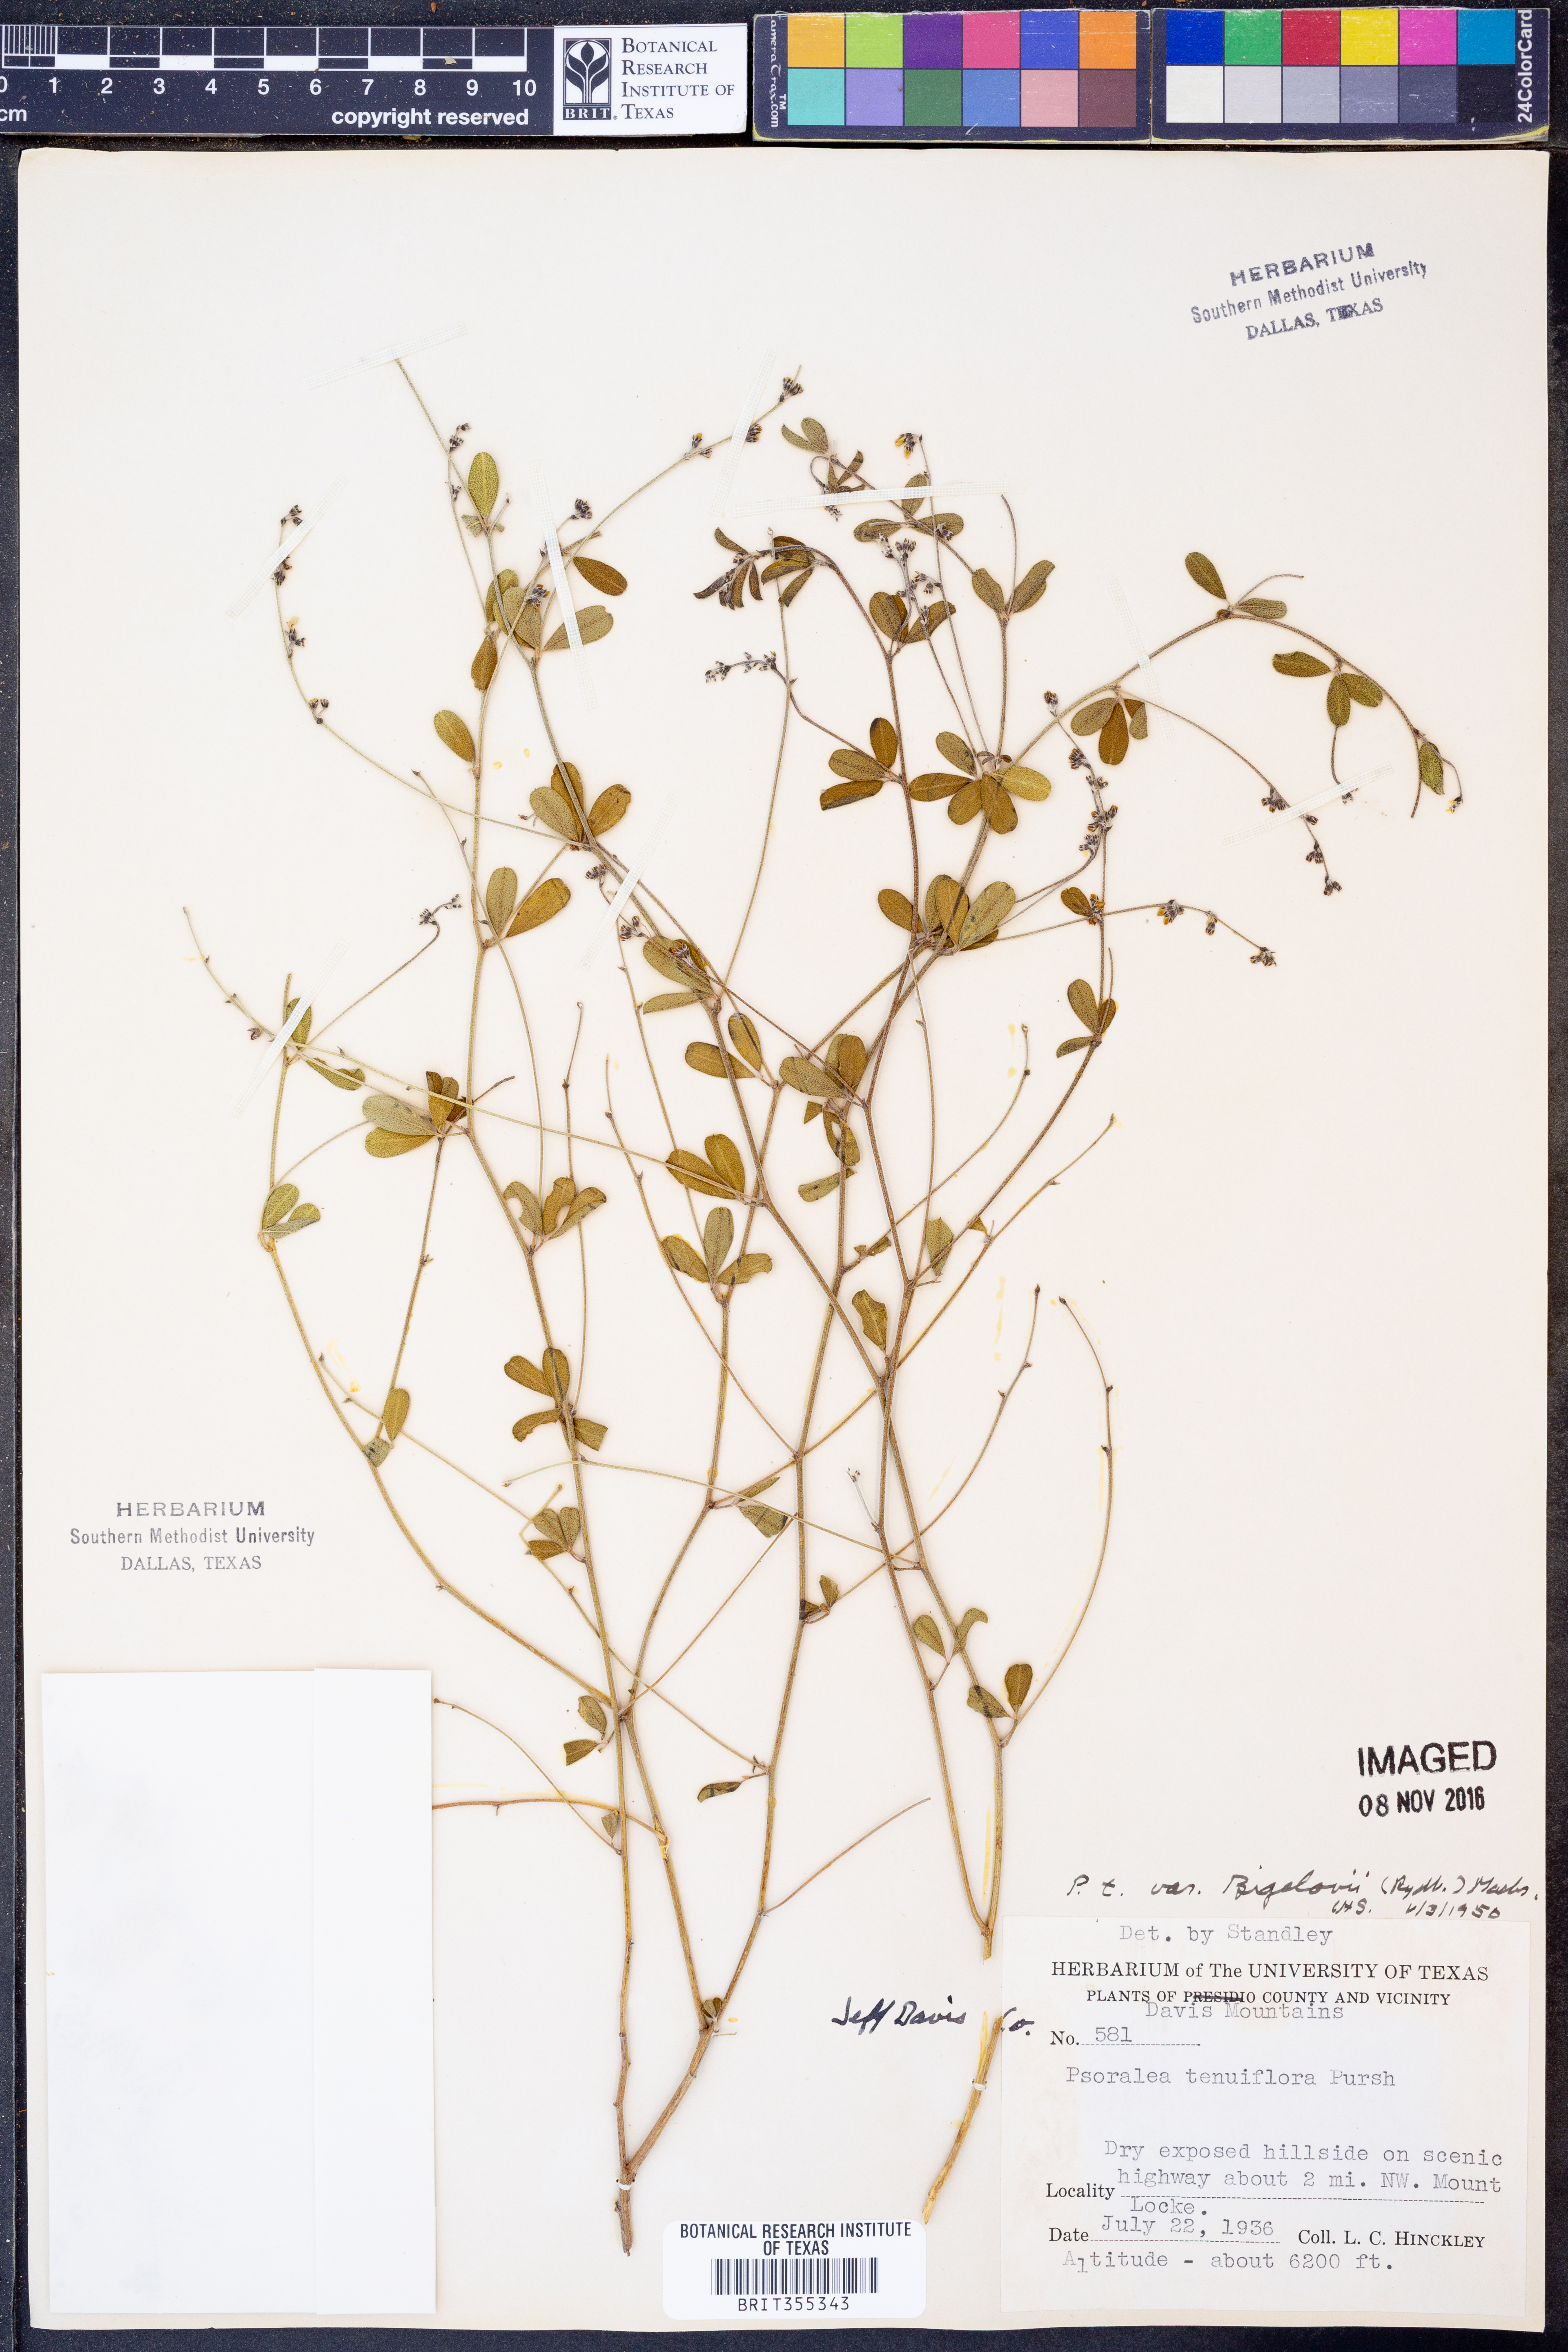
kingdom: Plantae
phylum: Tracheophyta
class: Magnoliopsida
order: Fabales
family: Fabaceae
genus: Pediomelum
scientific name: Pediomelum tenuiflorum
